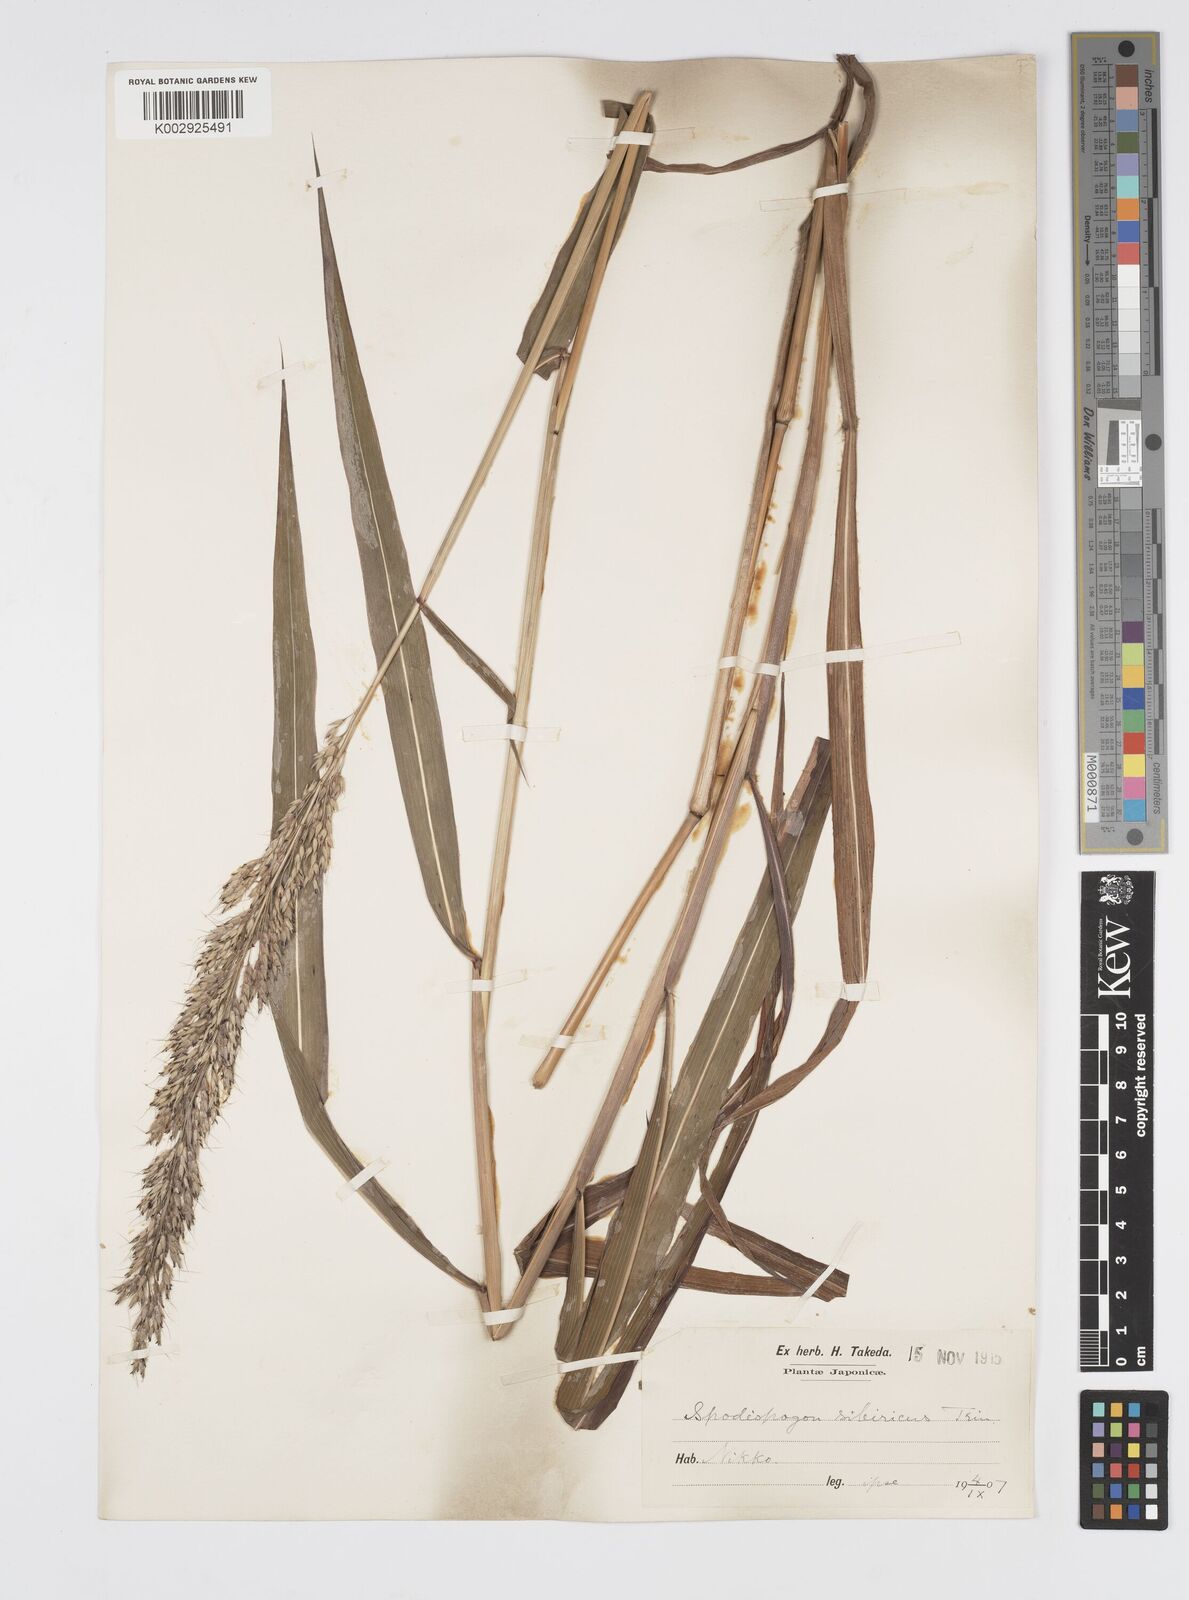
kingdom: Plantae
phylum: Tracheophyta
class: Liliopsida
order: Poales
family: Poaceae
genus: Spodiopogon
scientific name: Spodiopogon sibiricus
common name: Siberian graybeard
